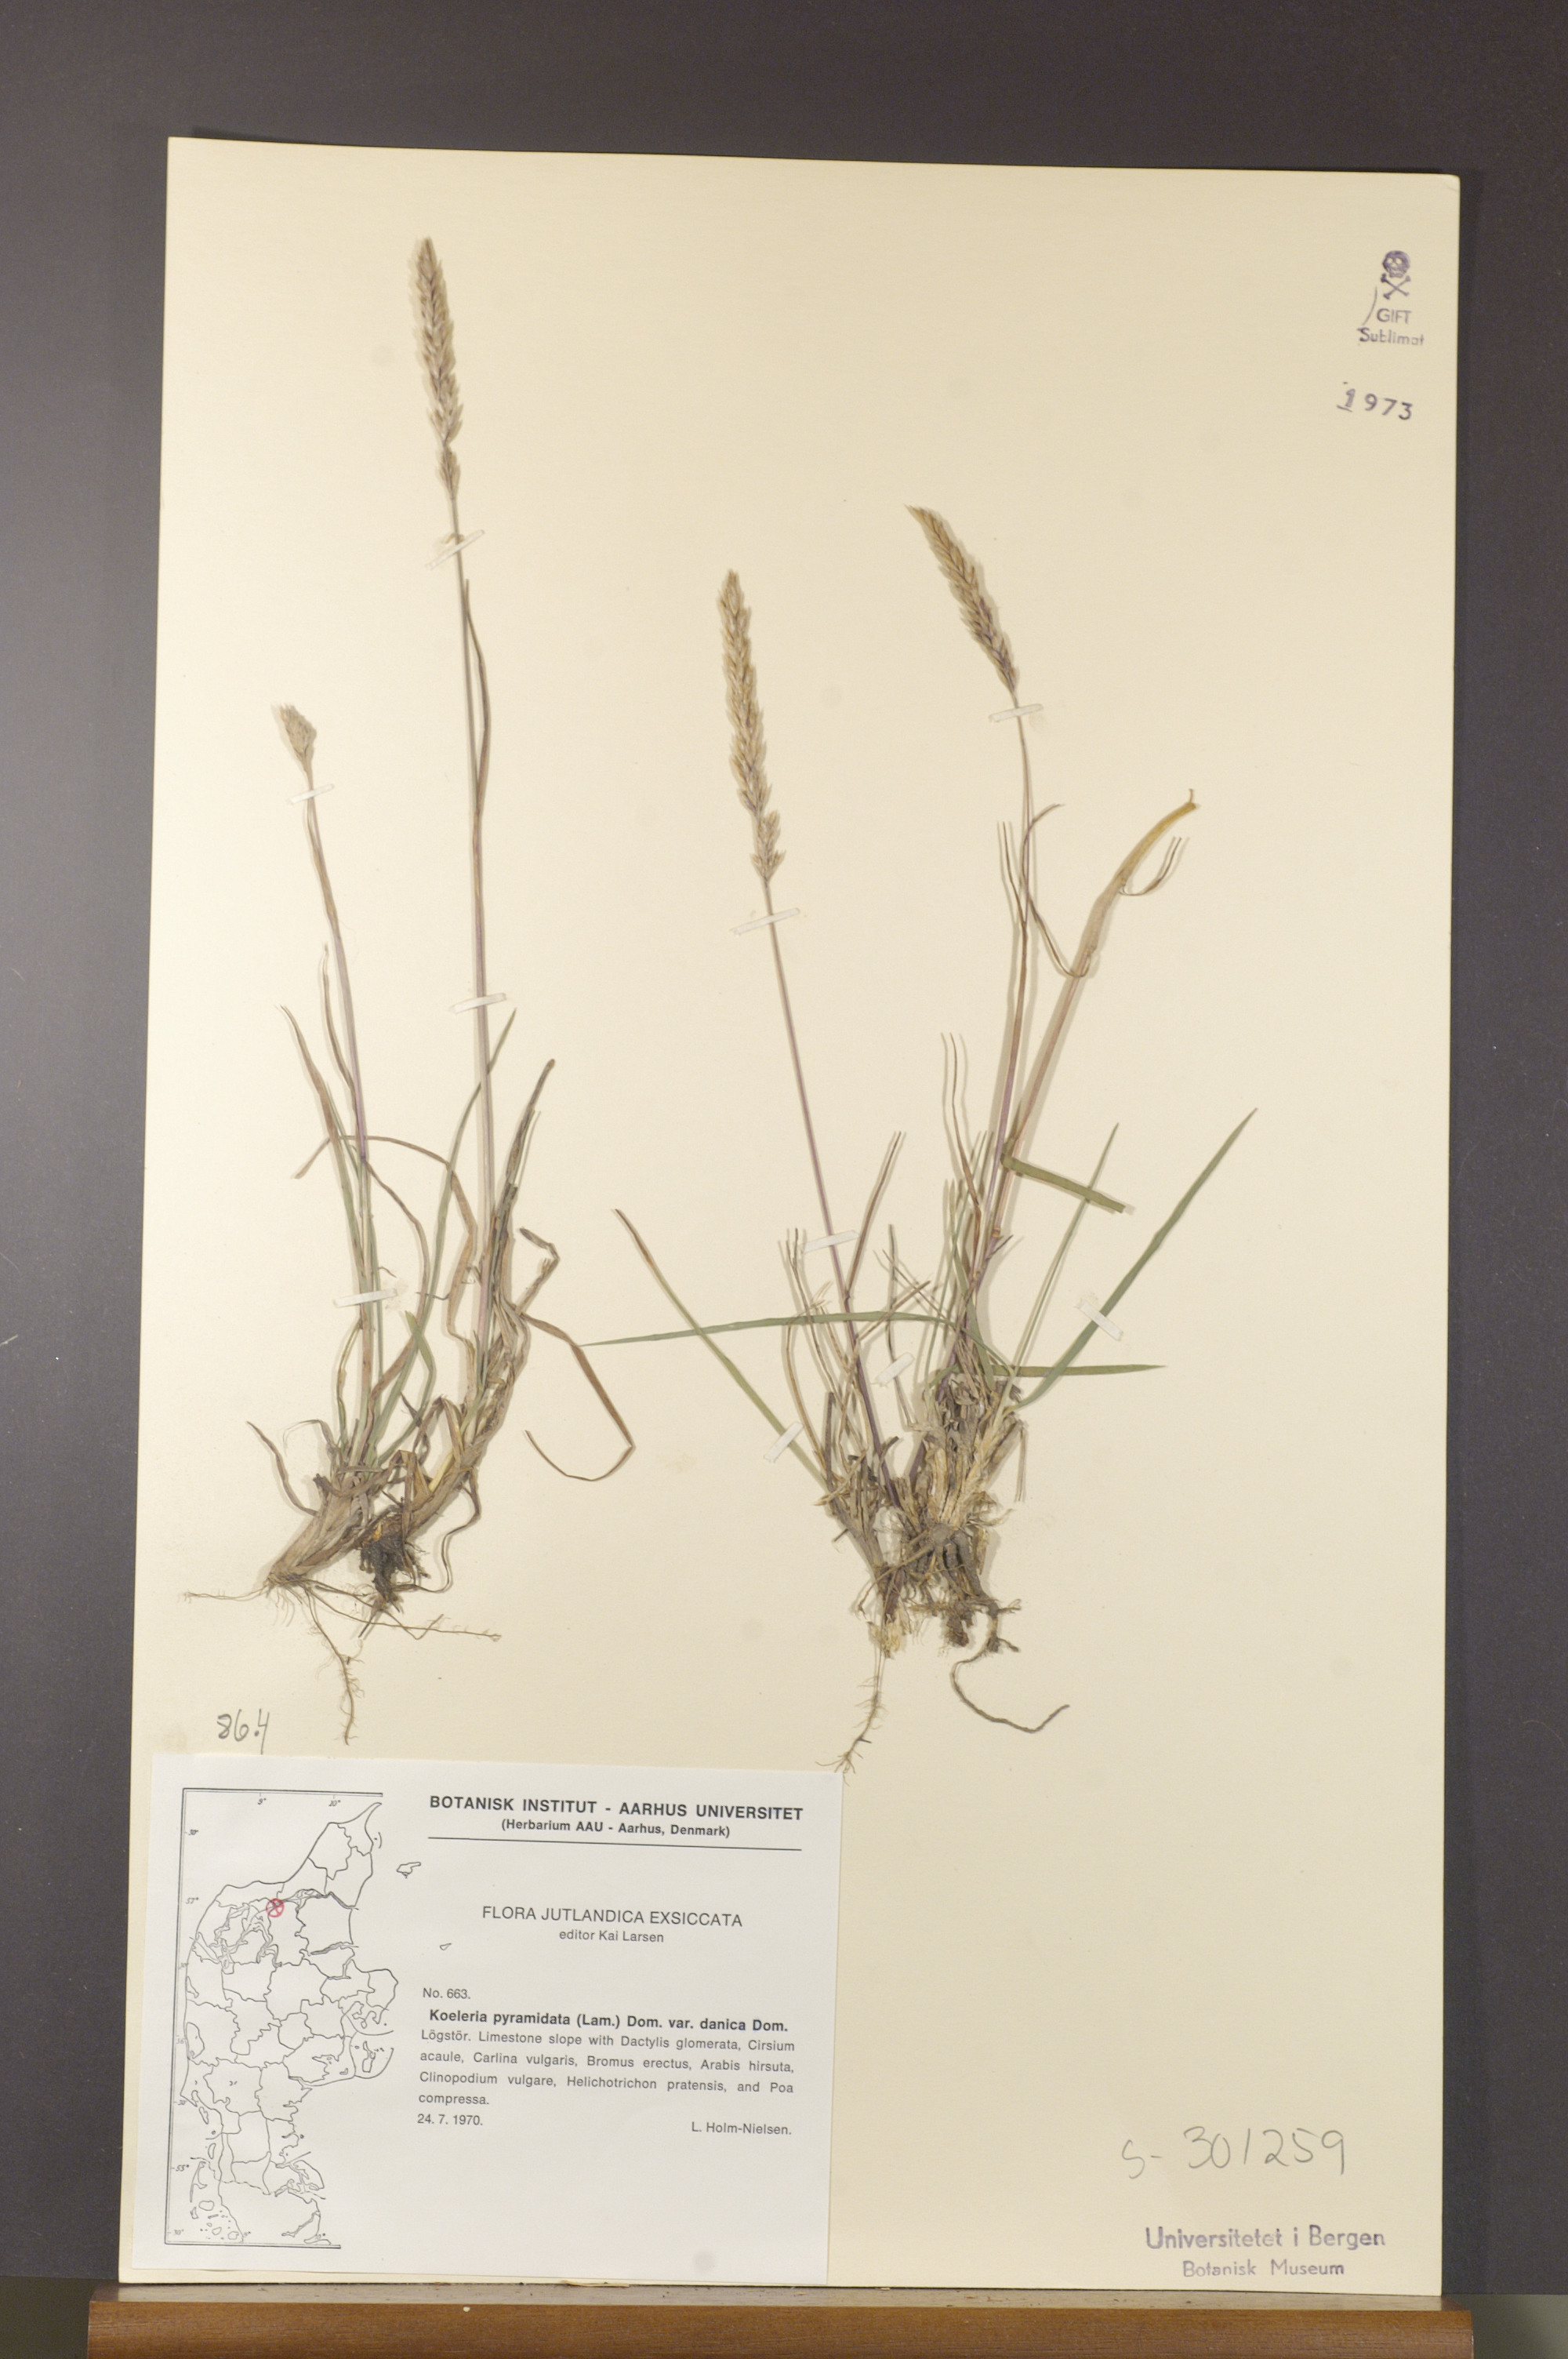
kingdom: Plantae
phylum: Tracheophyta
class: Liliopsida
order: Poales
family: Poaceae
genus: Koeleria
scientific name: Koeleria pyramidata
